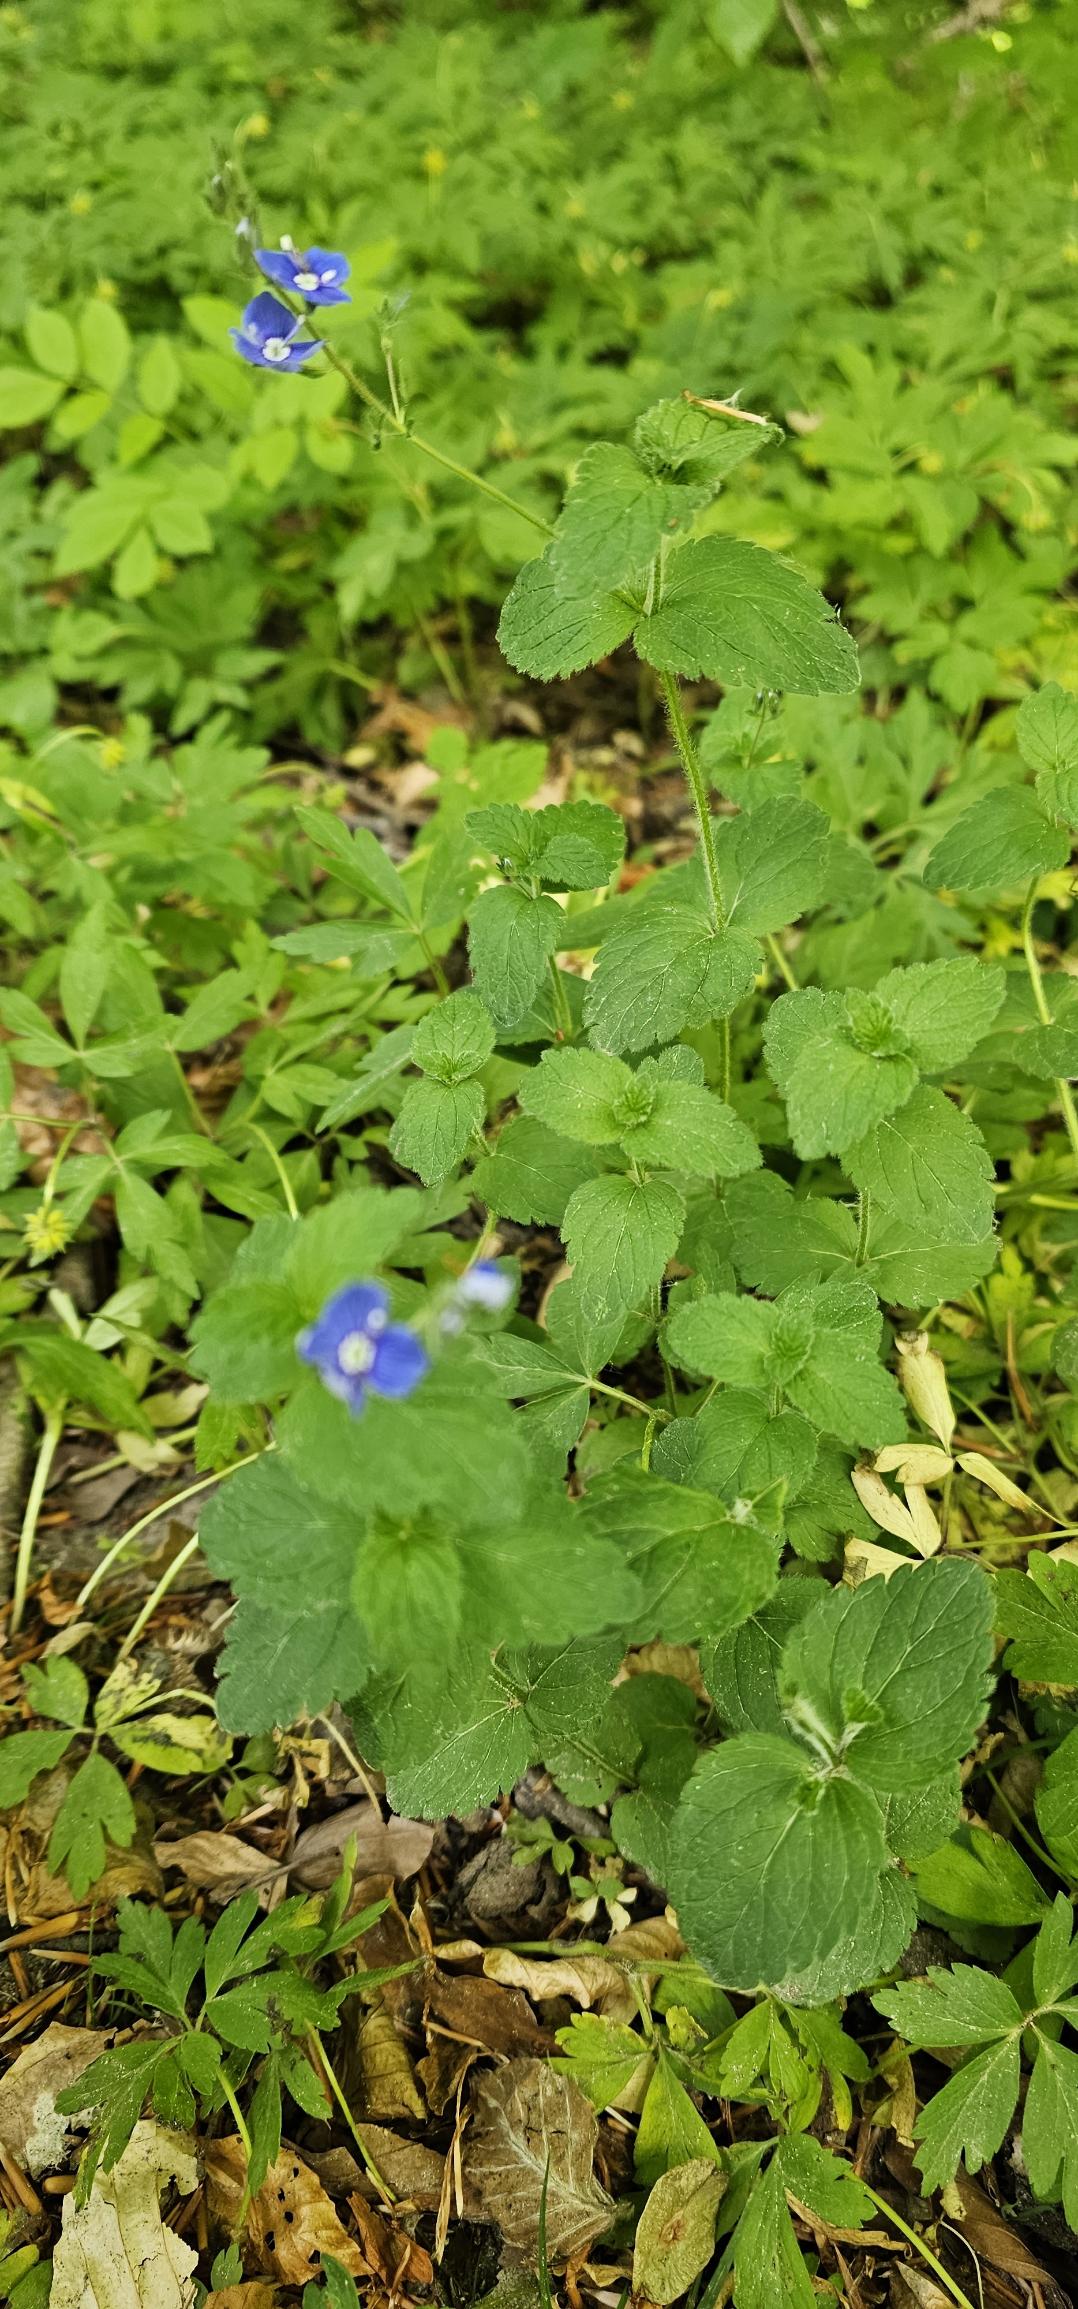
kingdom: Plantae
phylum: Tracheophyta
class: Magnoliopsida
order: Lamiales
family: Plantaginaceae
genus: Veronica
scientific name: Veronica chamaedrys
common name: Tveskægget ærenpris
